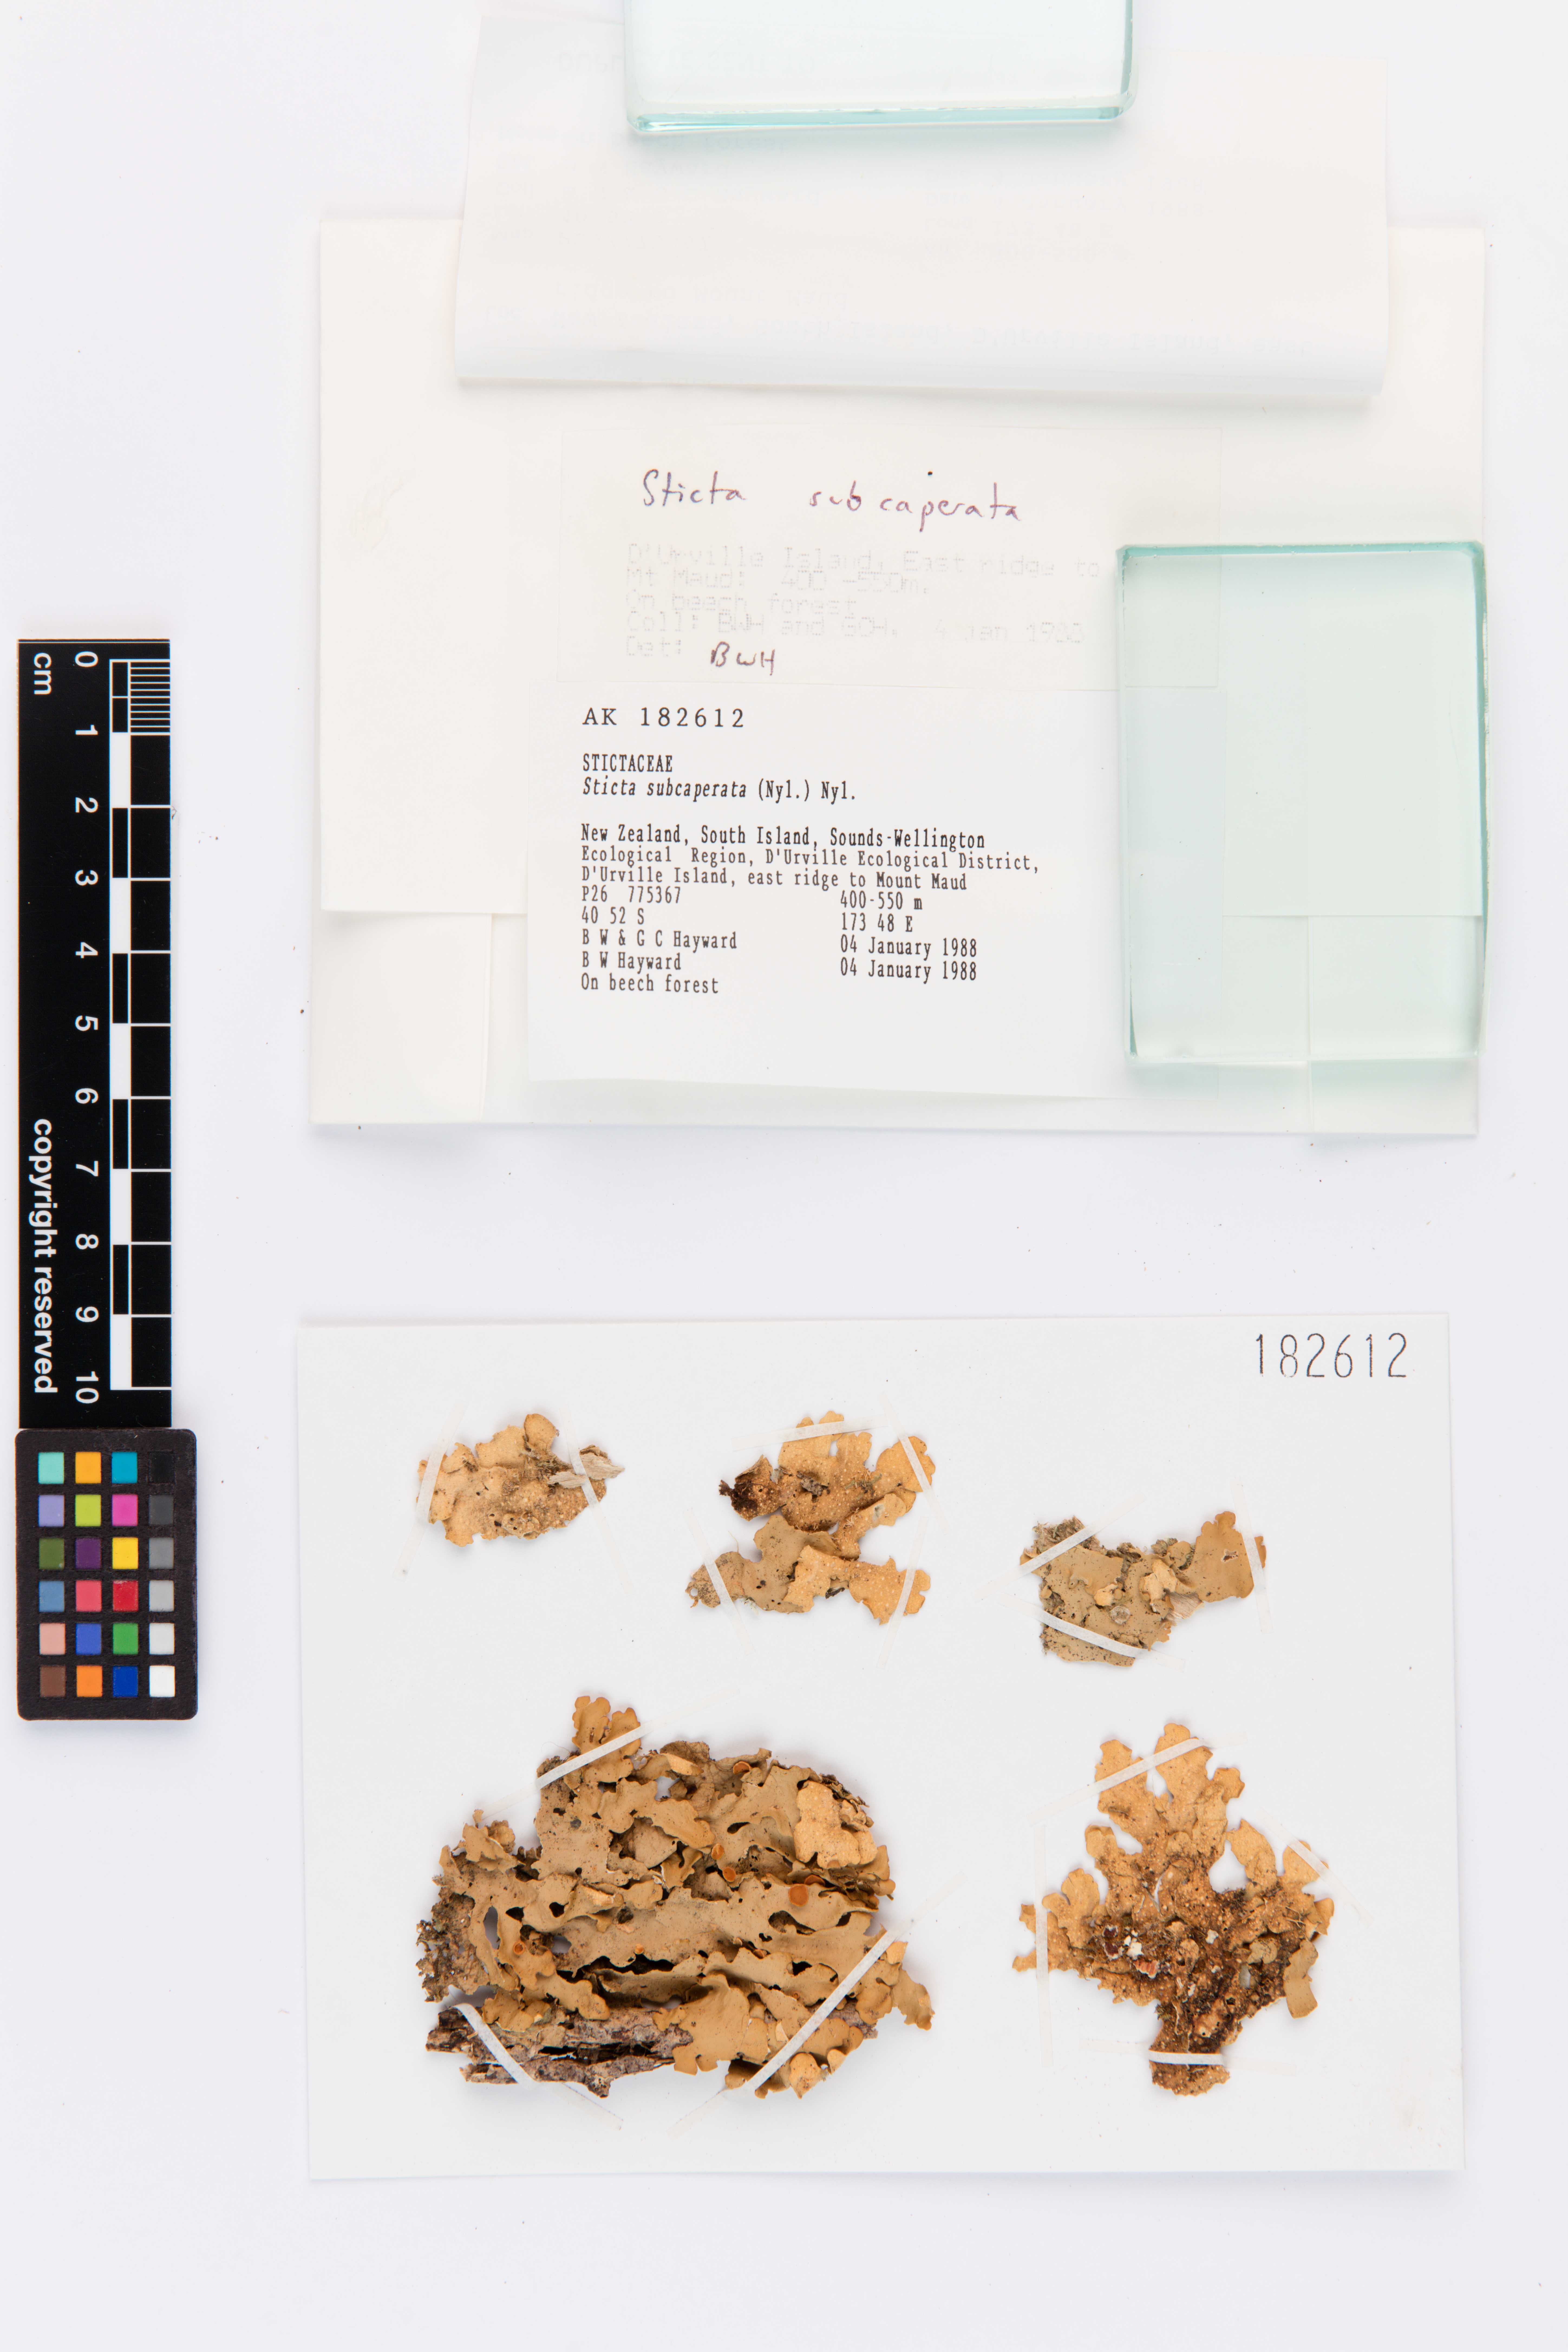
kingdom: Fungi
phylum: Ascomycota
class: Lecanoromycetes
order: Peltigerales
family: Lobariaceae
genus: Sticta
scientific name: Sticta subcaperata
